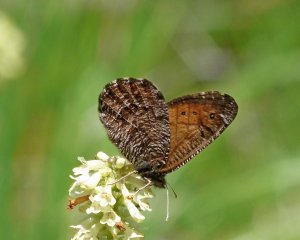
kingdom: Animalia
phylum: Arthropoda
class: Insecta
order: Lepidoptera
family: Nymphalidae
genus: Oeneis
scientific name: Oeneis chryxus
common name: Chryxus Arctic
